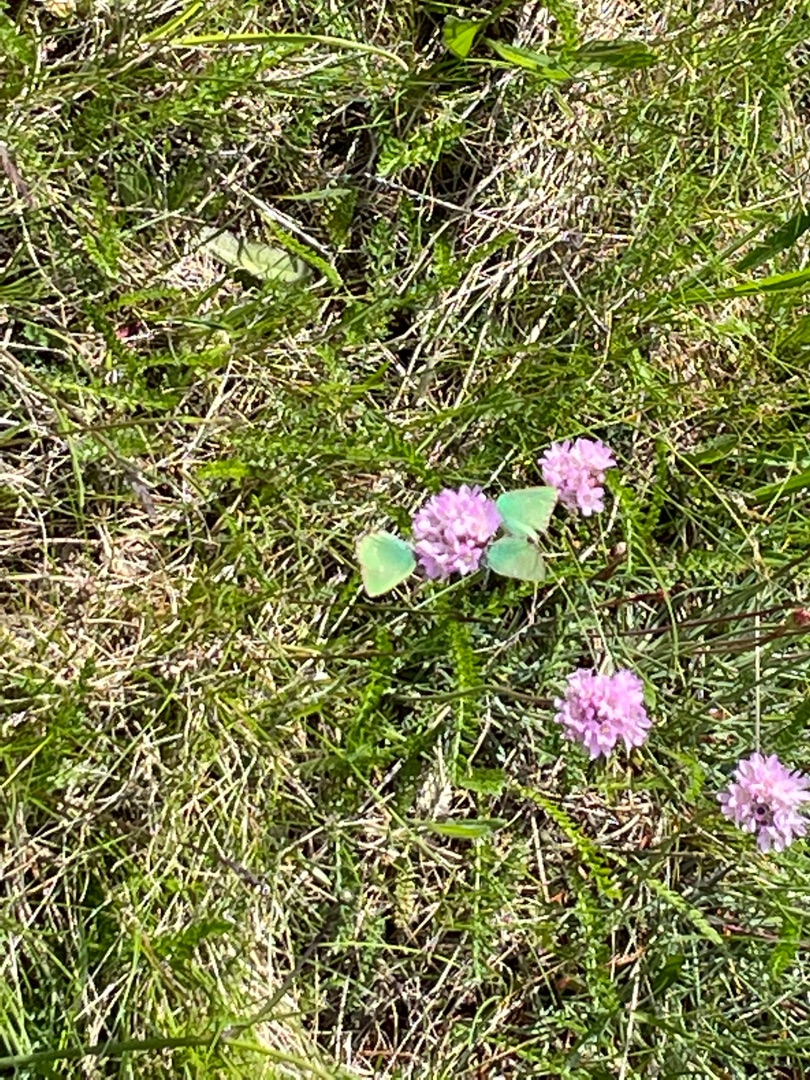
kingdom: Animalia
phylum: Arthropoda
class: Insecta
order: Lepidoptera
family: Lycaenidae
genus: Callophrys
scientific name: Callophrys rubi
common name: Grøn busksommerfugl
